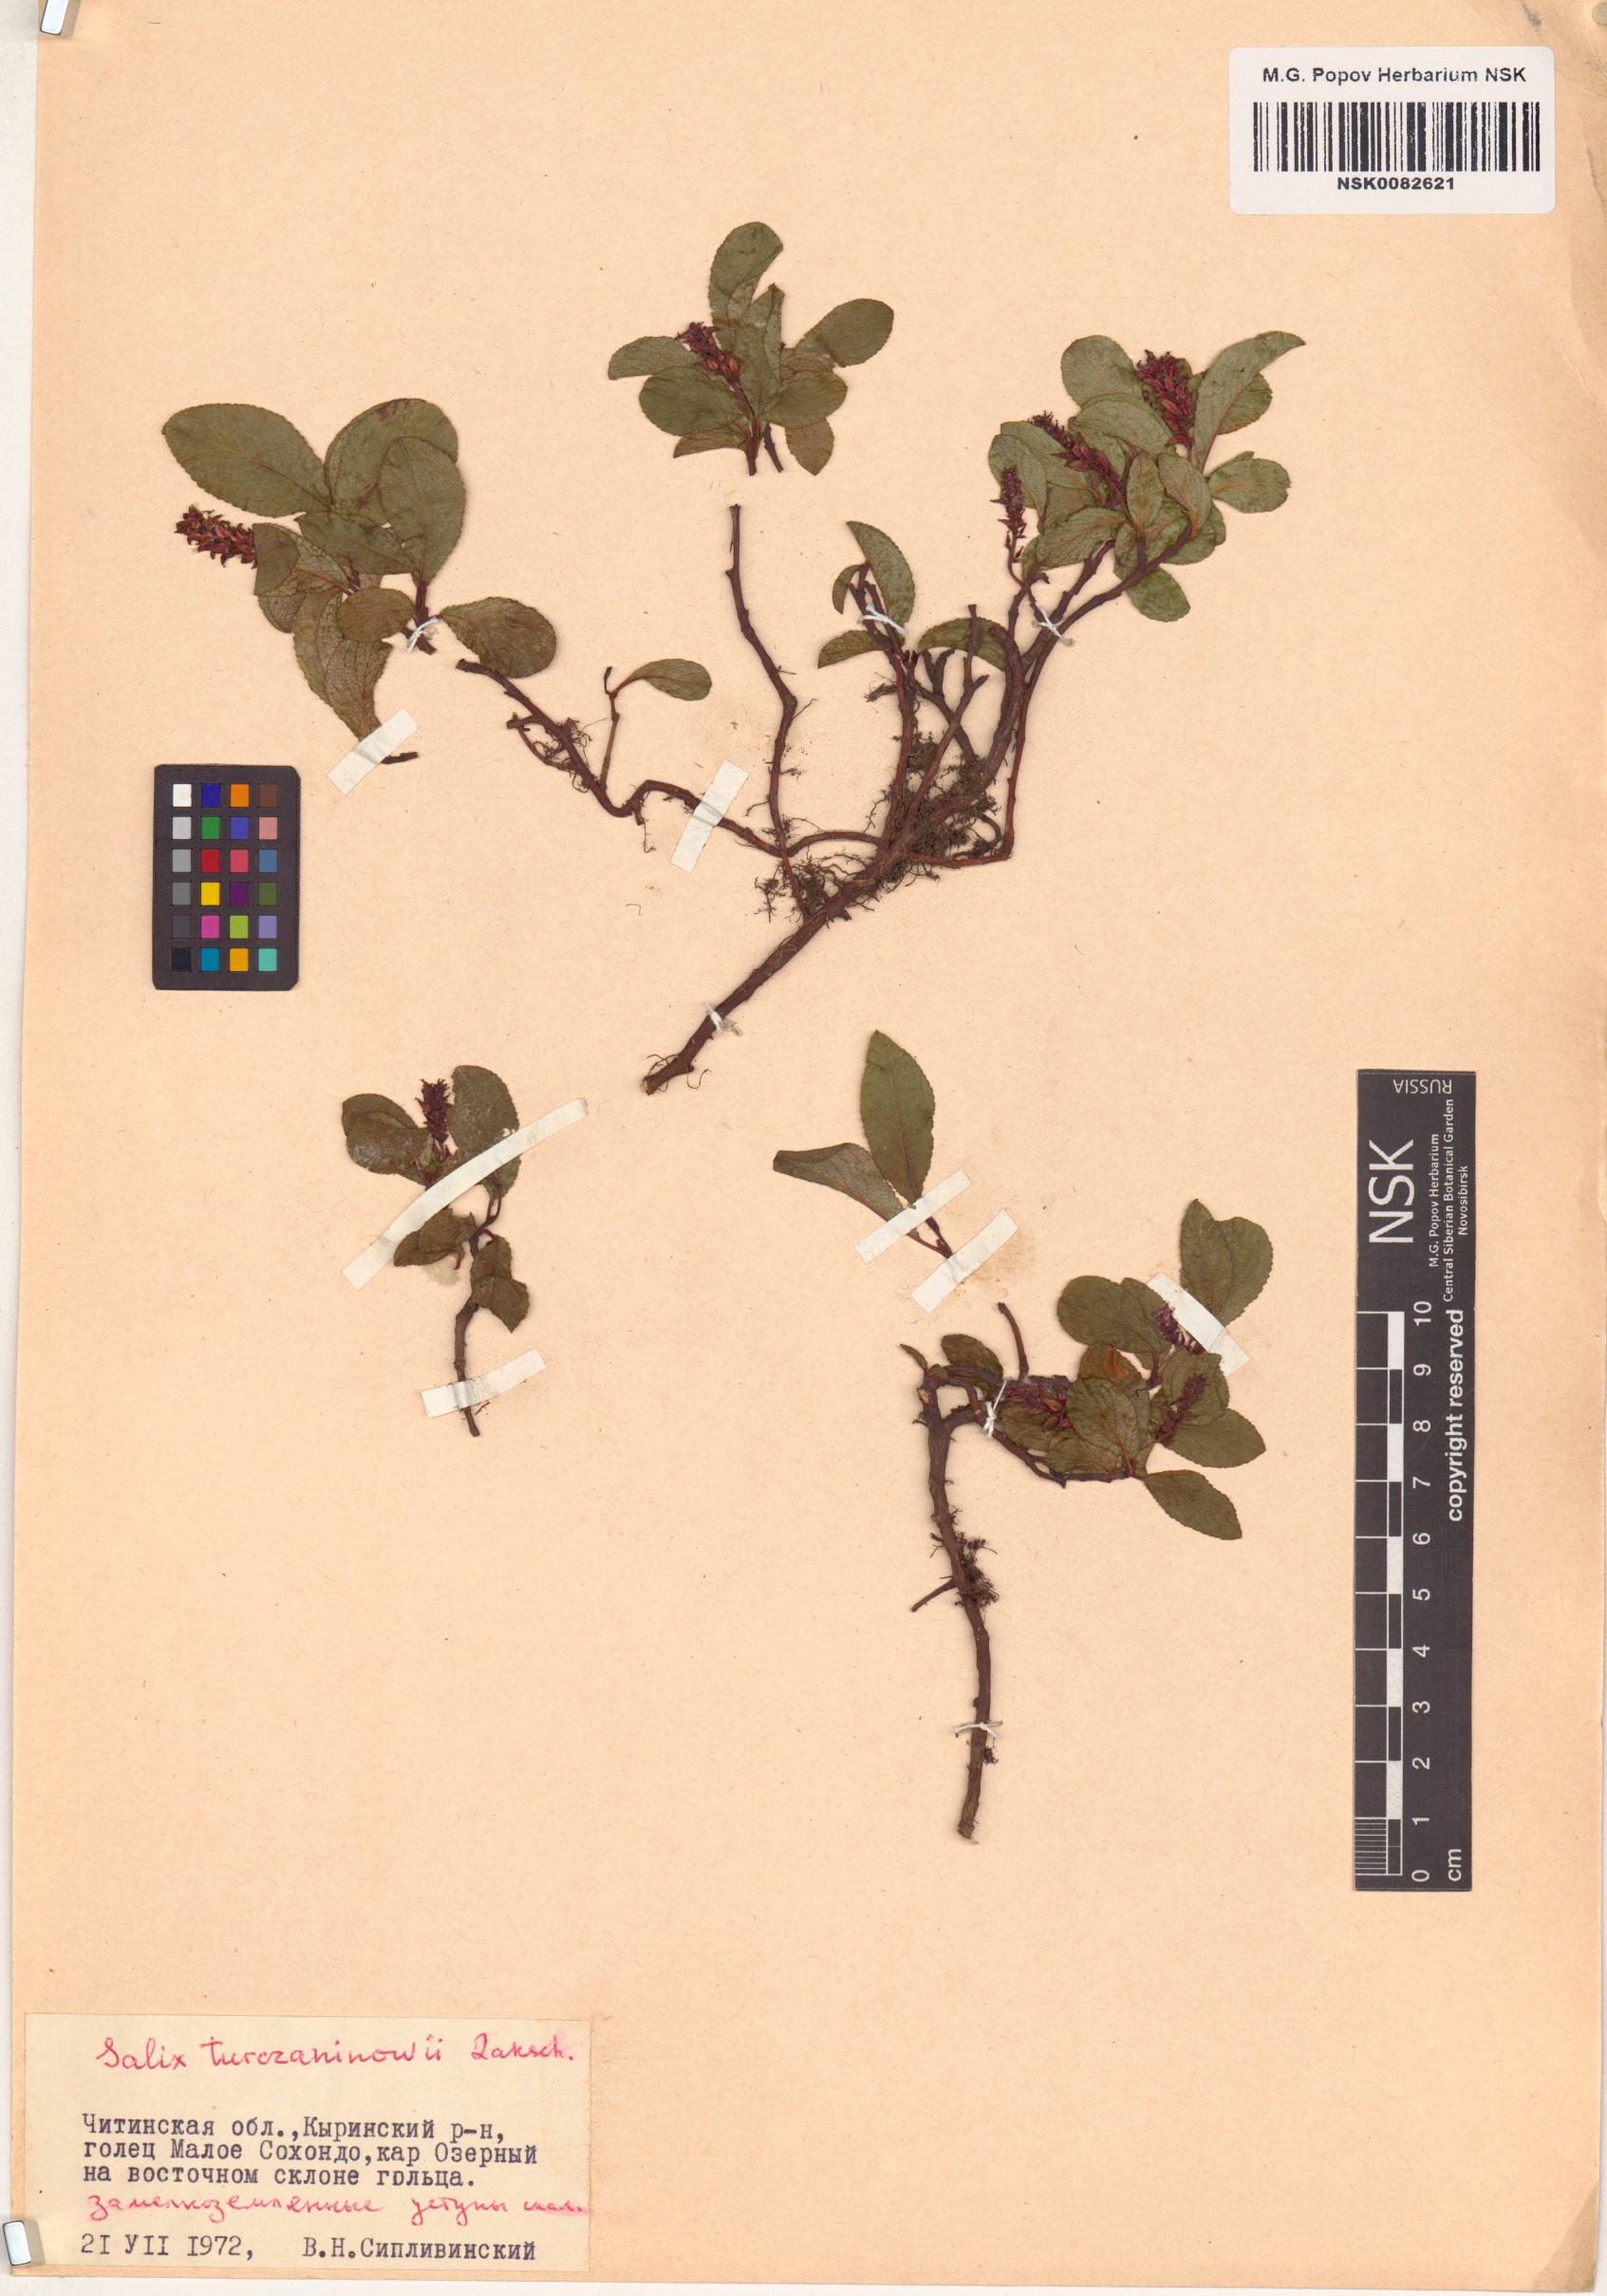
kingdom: Plantae
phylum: Tracheophyta
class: Magnoliopsida
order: Malpighiales
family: Salicaceae
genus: Salix
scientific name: Salix turczaninowii
